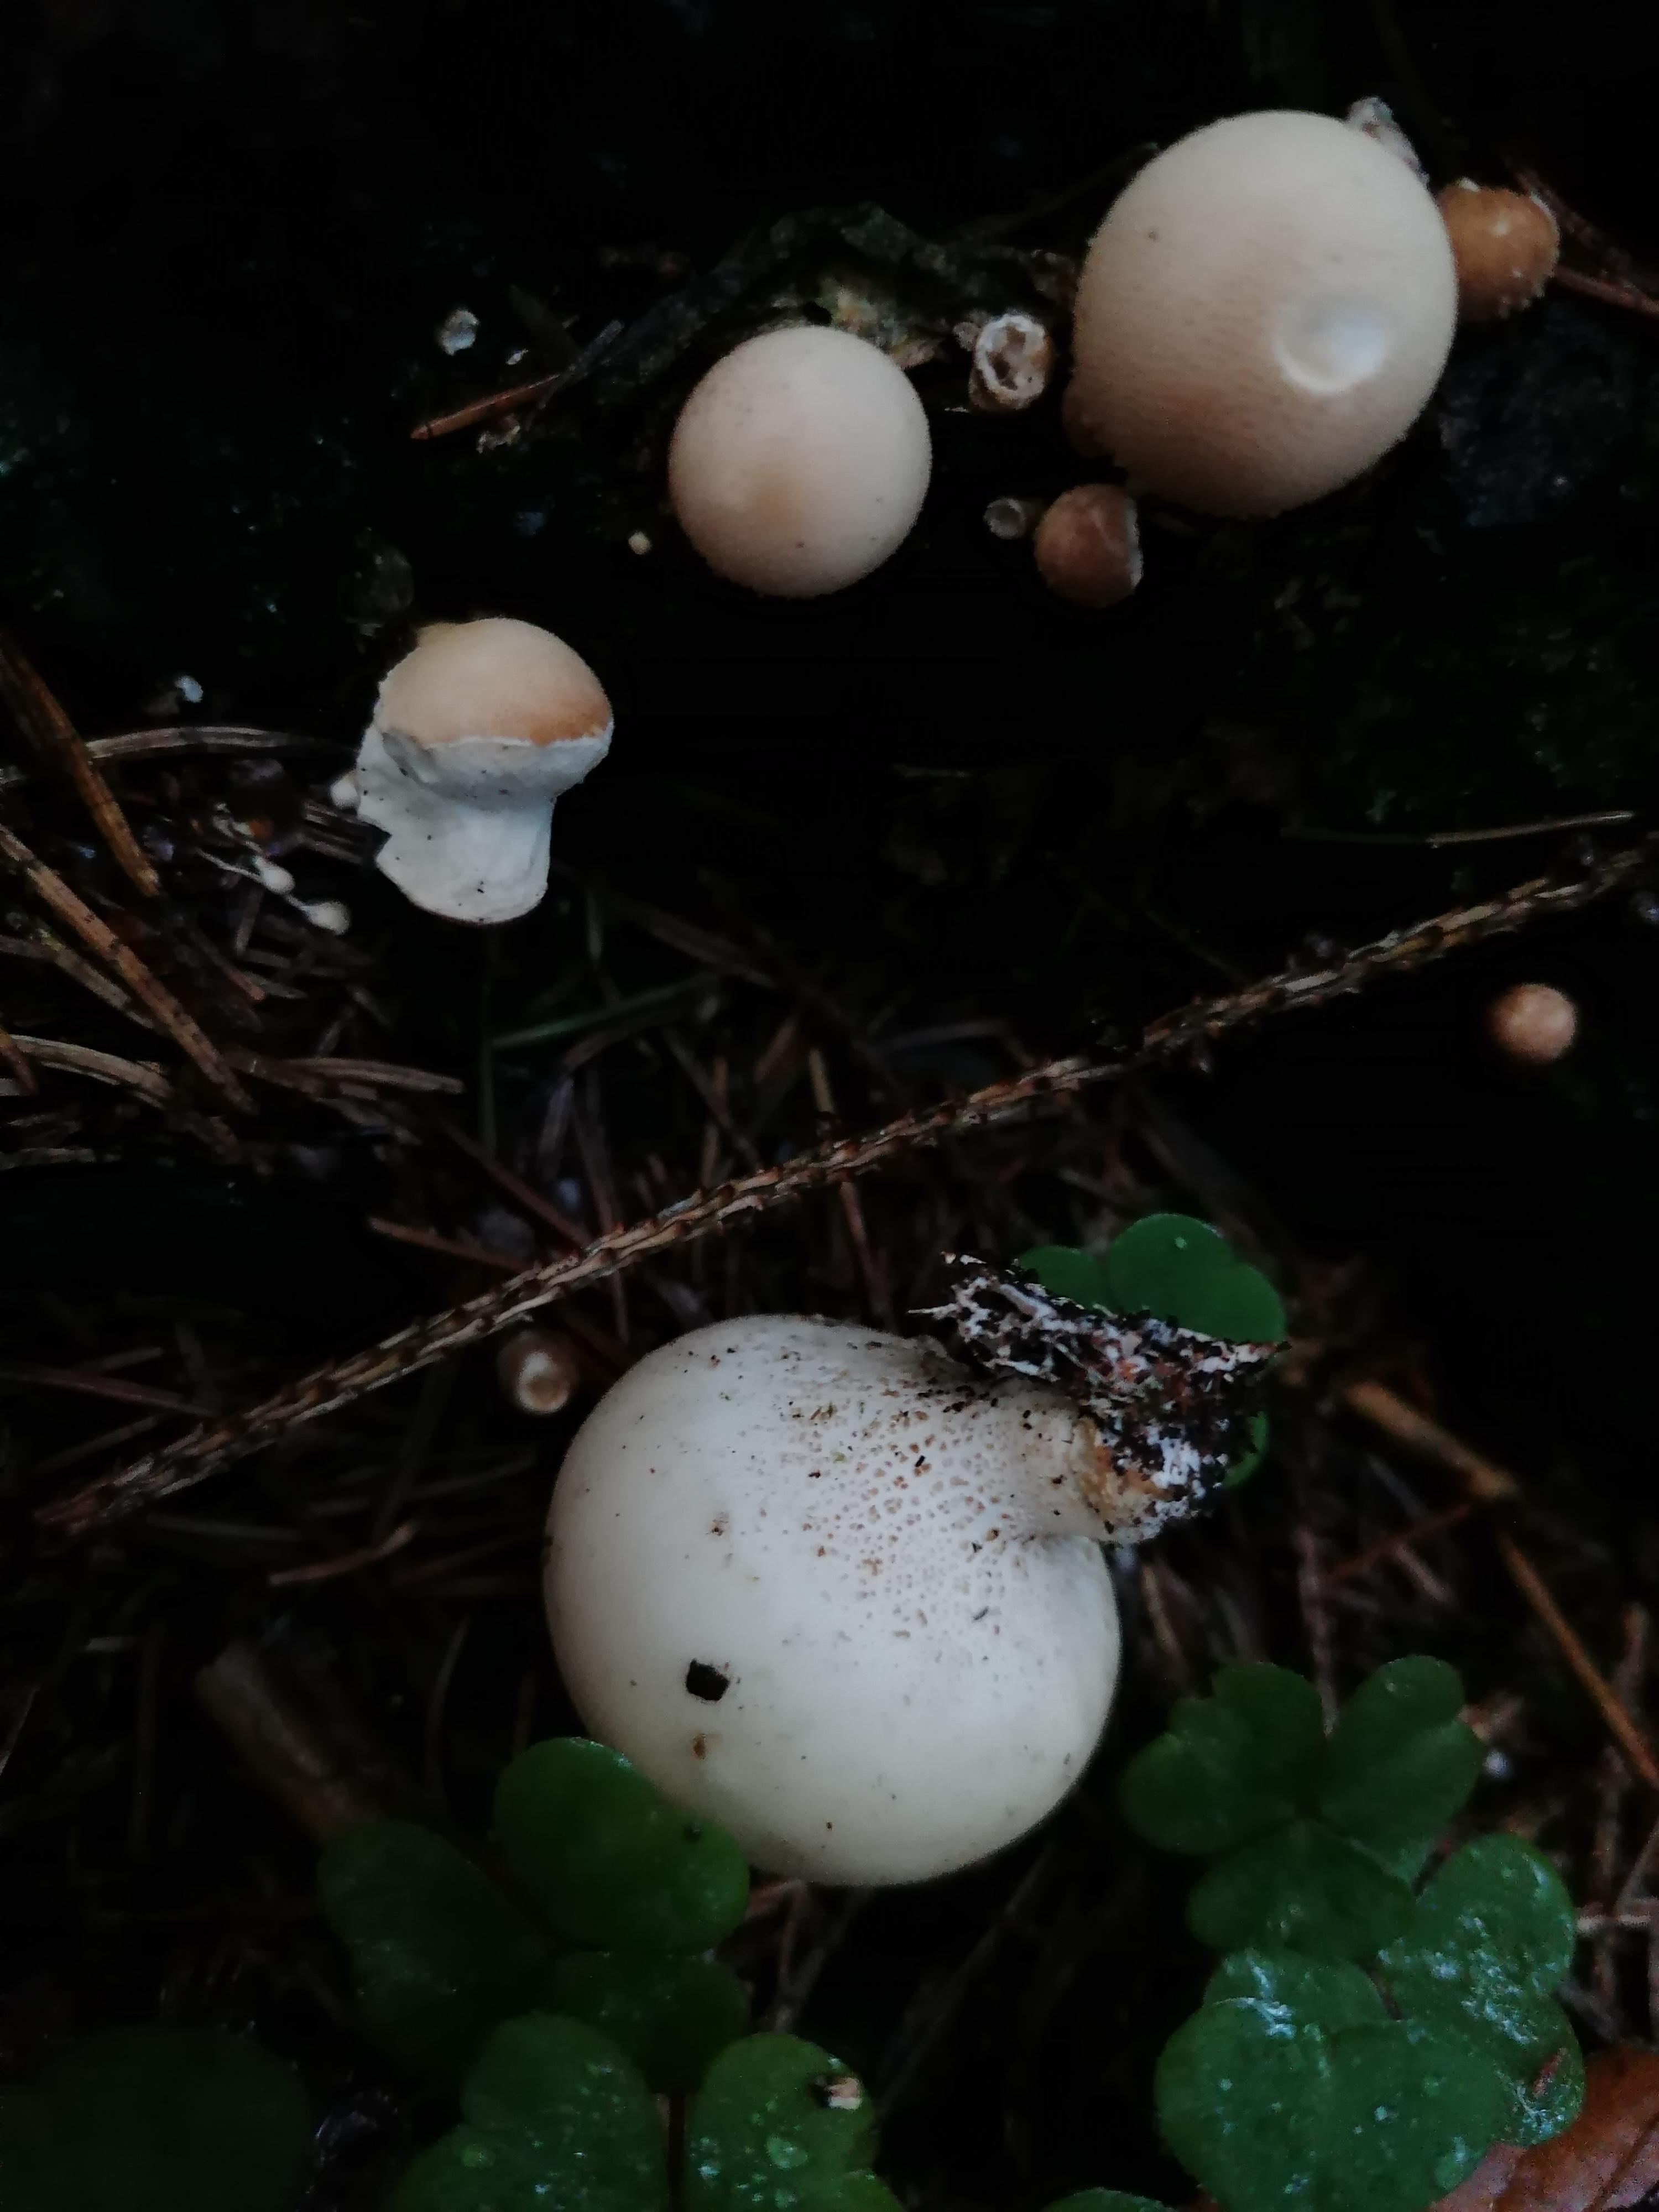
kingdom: Fungi
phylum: Basidiomycota
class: Agaricomycetes
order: Agaricales
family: Lycoperdaceae
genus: Apioperdon
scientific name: Apioperdon pyriforme
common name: pære-støvbold
